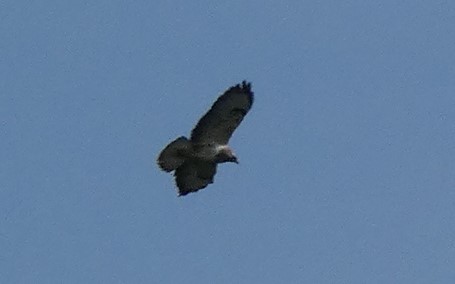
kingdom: Animalia
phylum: Chordata
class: Aves
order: Accipitriformes
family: Accipitridae
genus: Buteo
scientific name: Buteo buteo
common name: Musvåge
